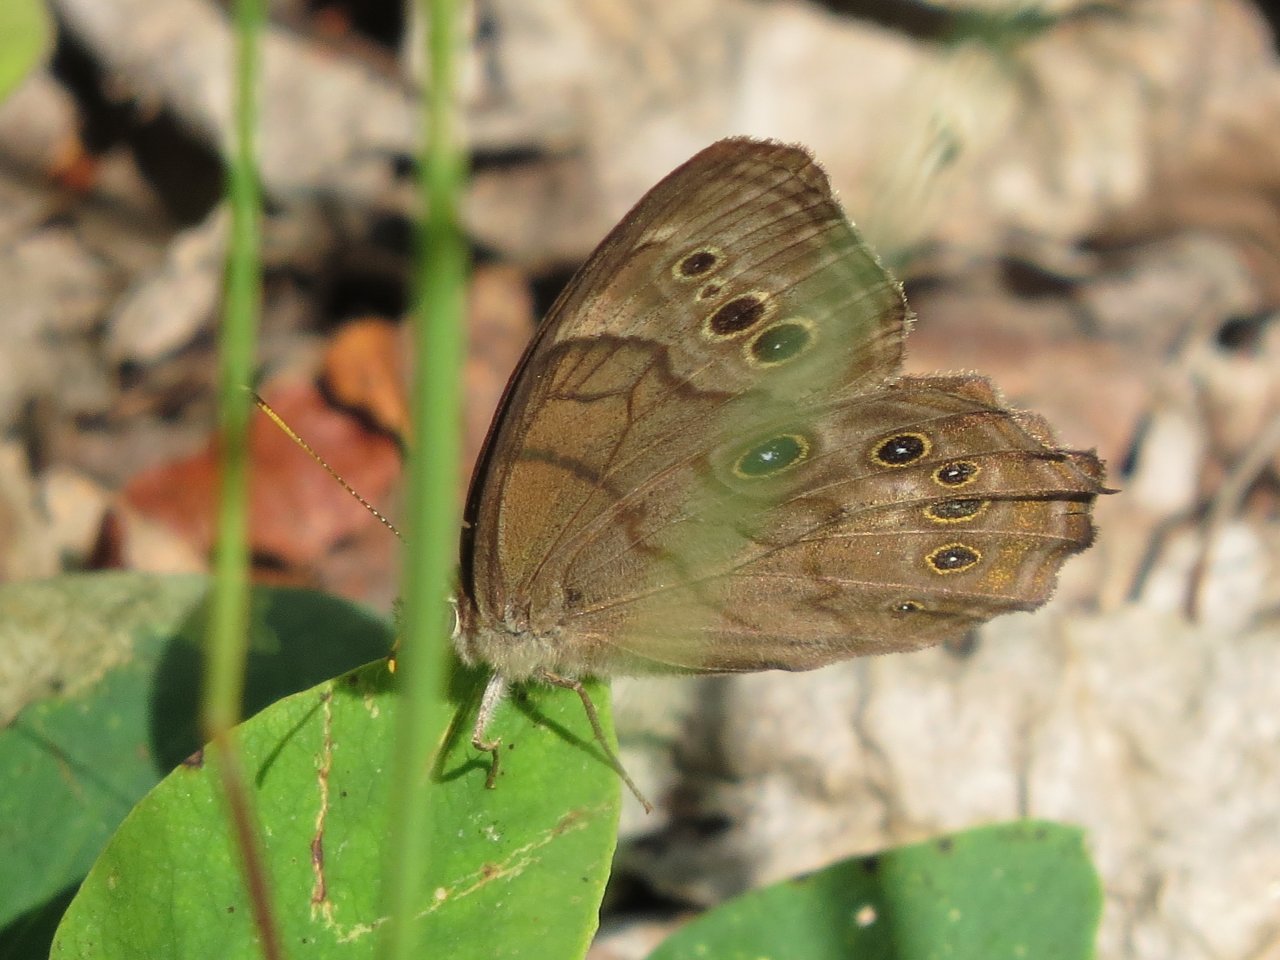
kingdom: Animalia
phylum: Arthropoda
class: Insecta
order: Lepidoptera
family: Nymphalidae
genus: Lethe
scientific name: Lethe anthedon
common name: Northern Pearly-Eye
